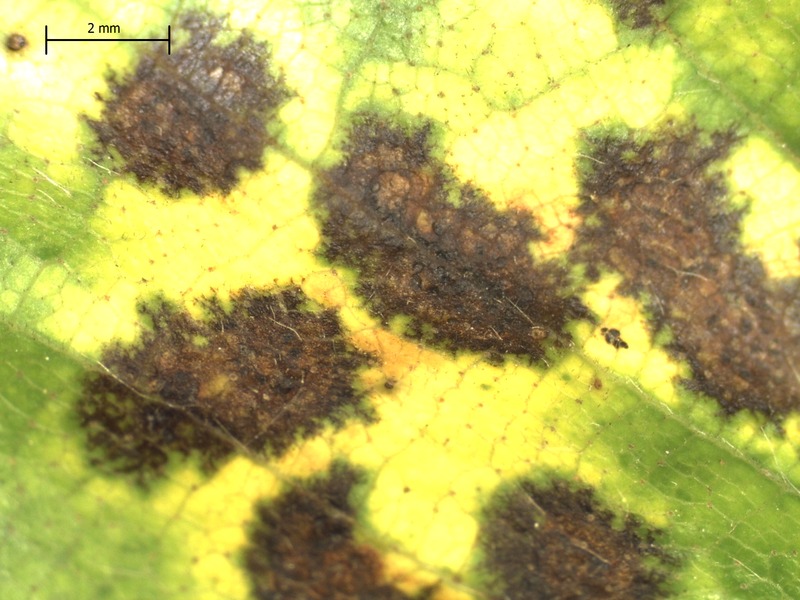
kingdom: Fungi
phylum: Ascomycota
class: Leotiomycetes
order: Helotiales
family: Drepanopezizaceae
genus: Marssonina
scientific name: Marssonina betulae
